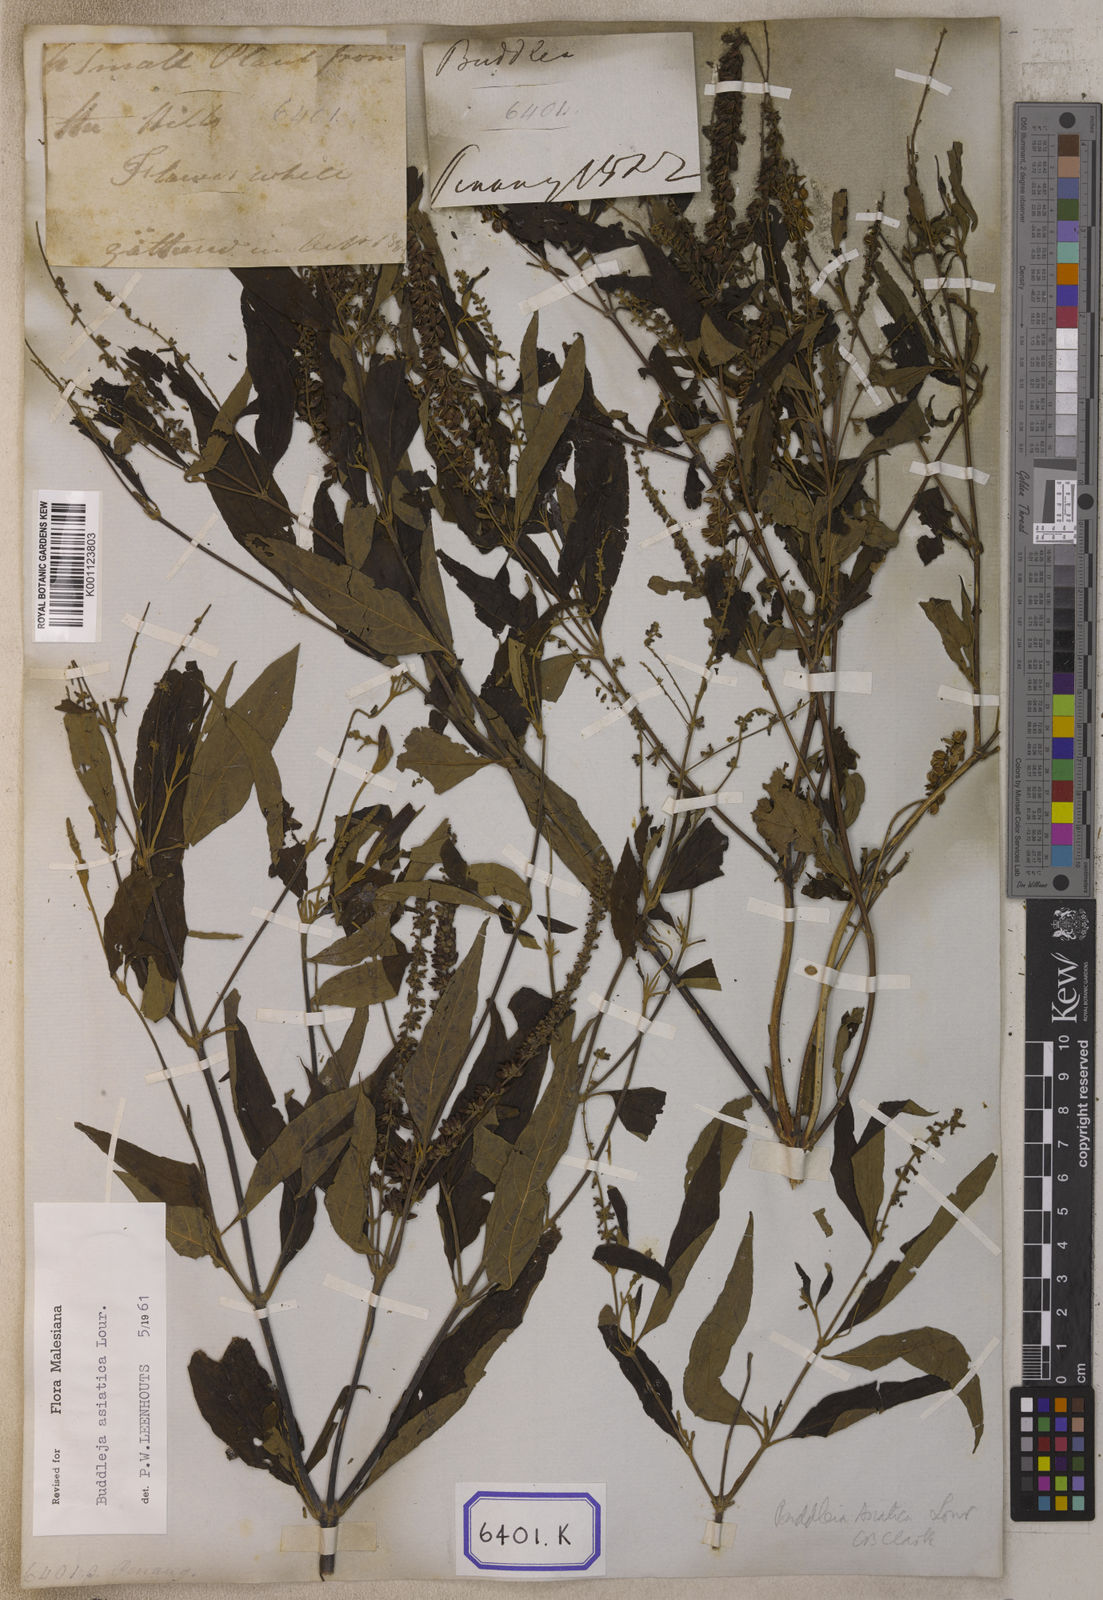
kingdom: Plantae
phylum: Tracheophyta
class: Magnoliopsida
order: Lamiales
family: Scrophulariaceae
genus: Buddleja
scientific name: Buddleja
